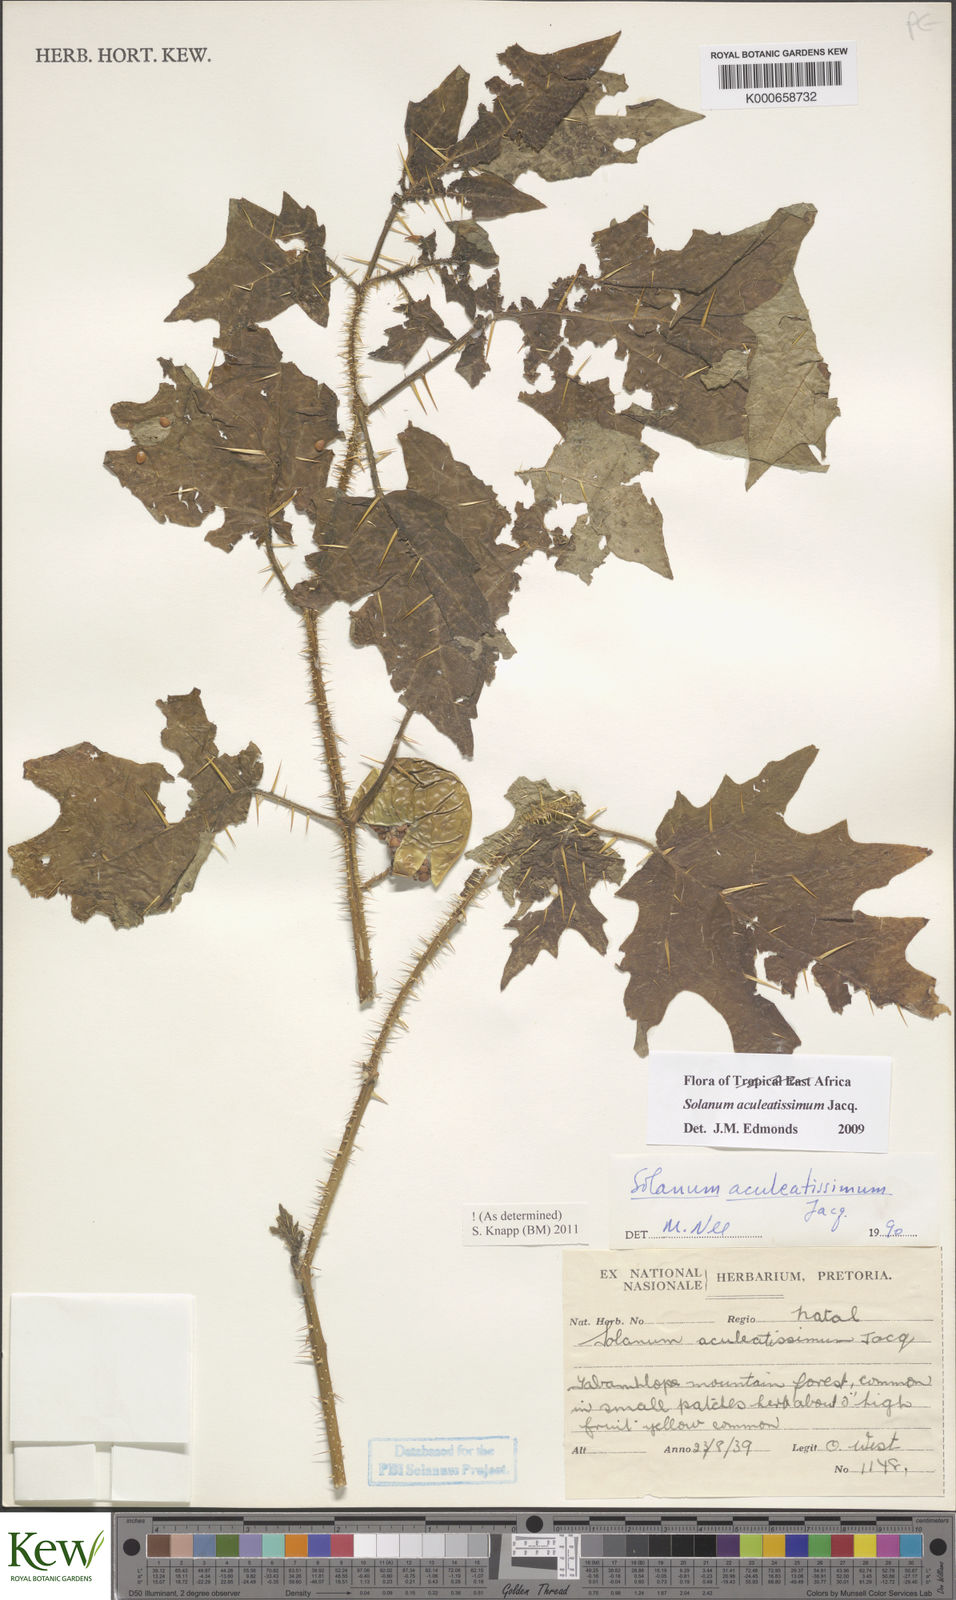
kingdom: Plantae
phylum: Tracheophyta
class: Magnoliopsida
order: Solanales
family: Solanaceae
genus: Solanum
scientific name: Solanum aculeatissimum
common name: Dutch eggplant
